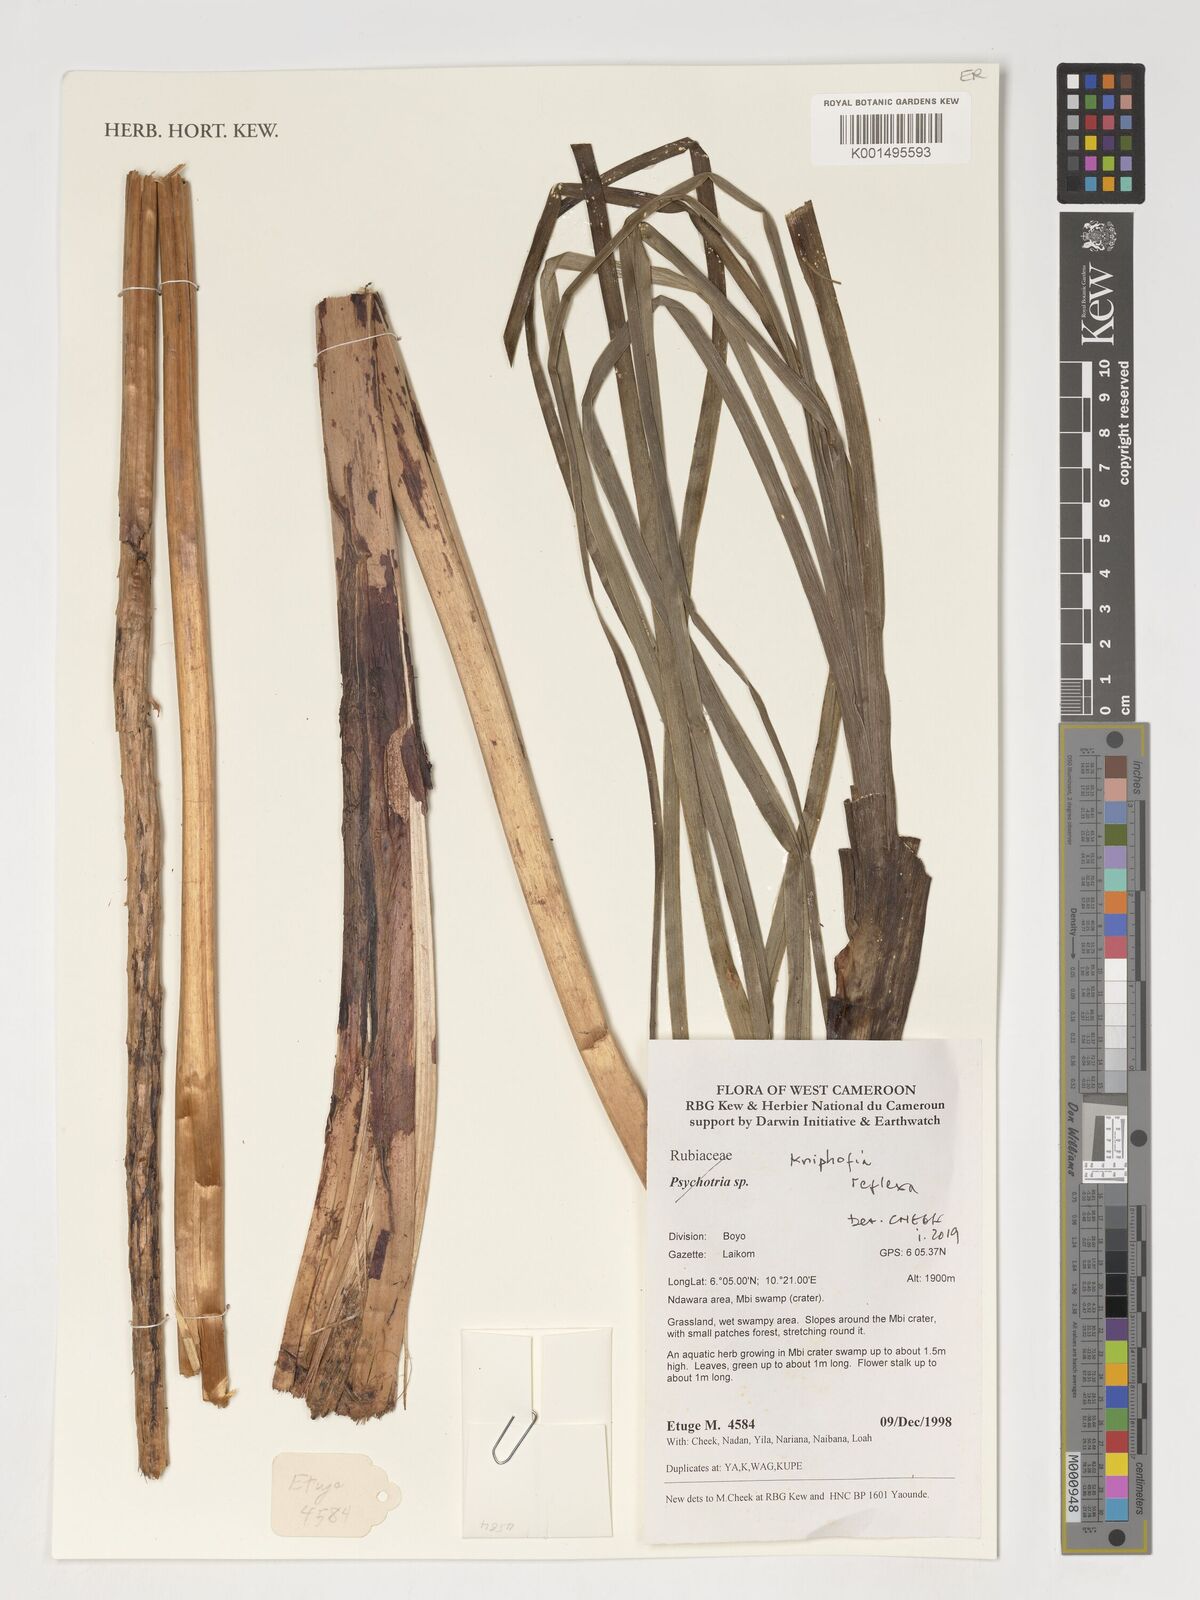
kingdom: Plantae
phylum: Tracheophyta
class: Liliopsida
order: Asparagales
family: Asphodelaceae
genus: Kniphofia
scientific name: Kniphofia reflexa
